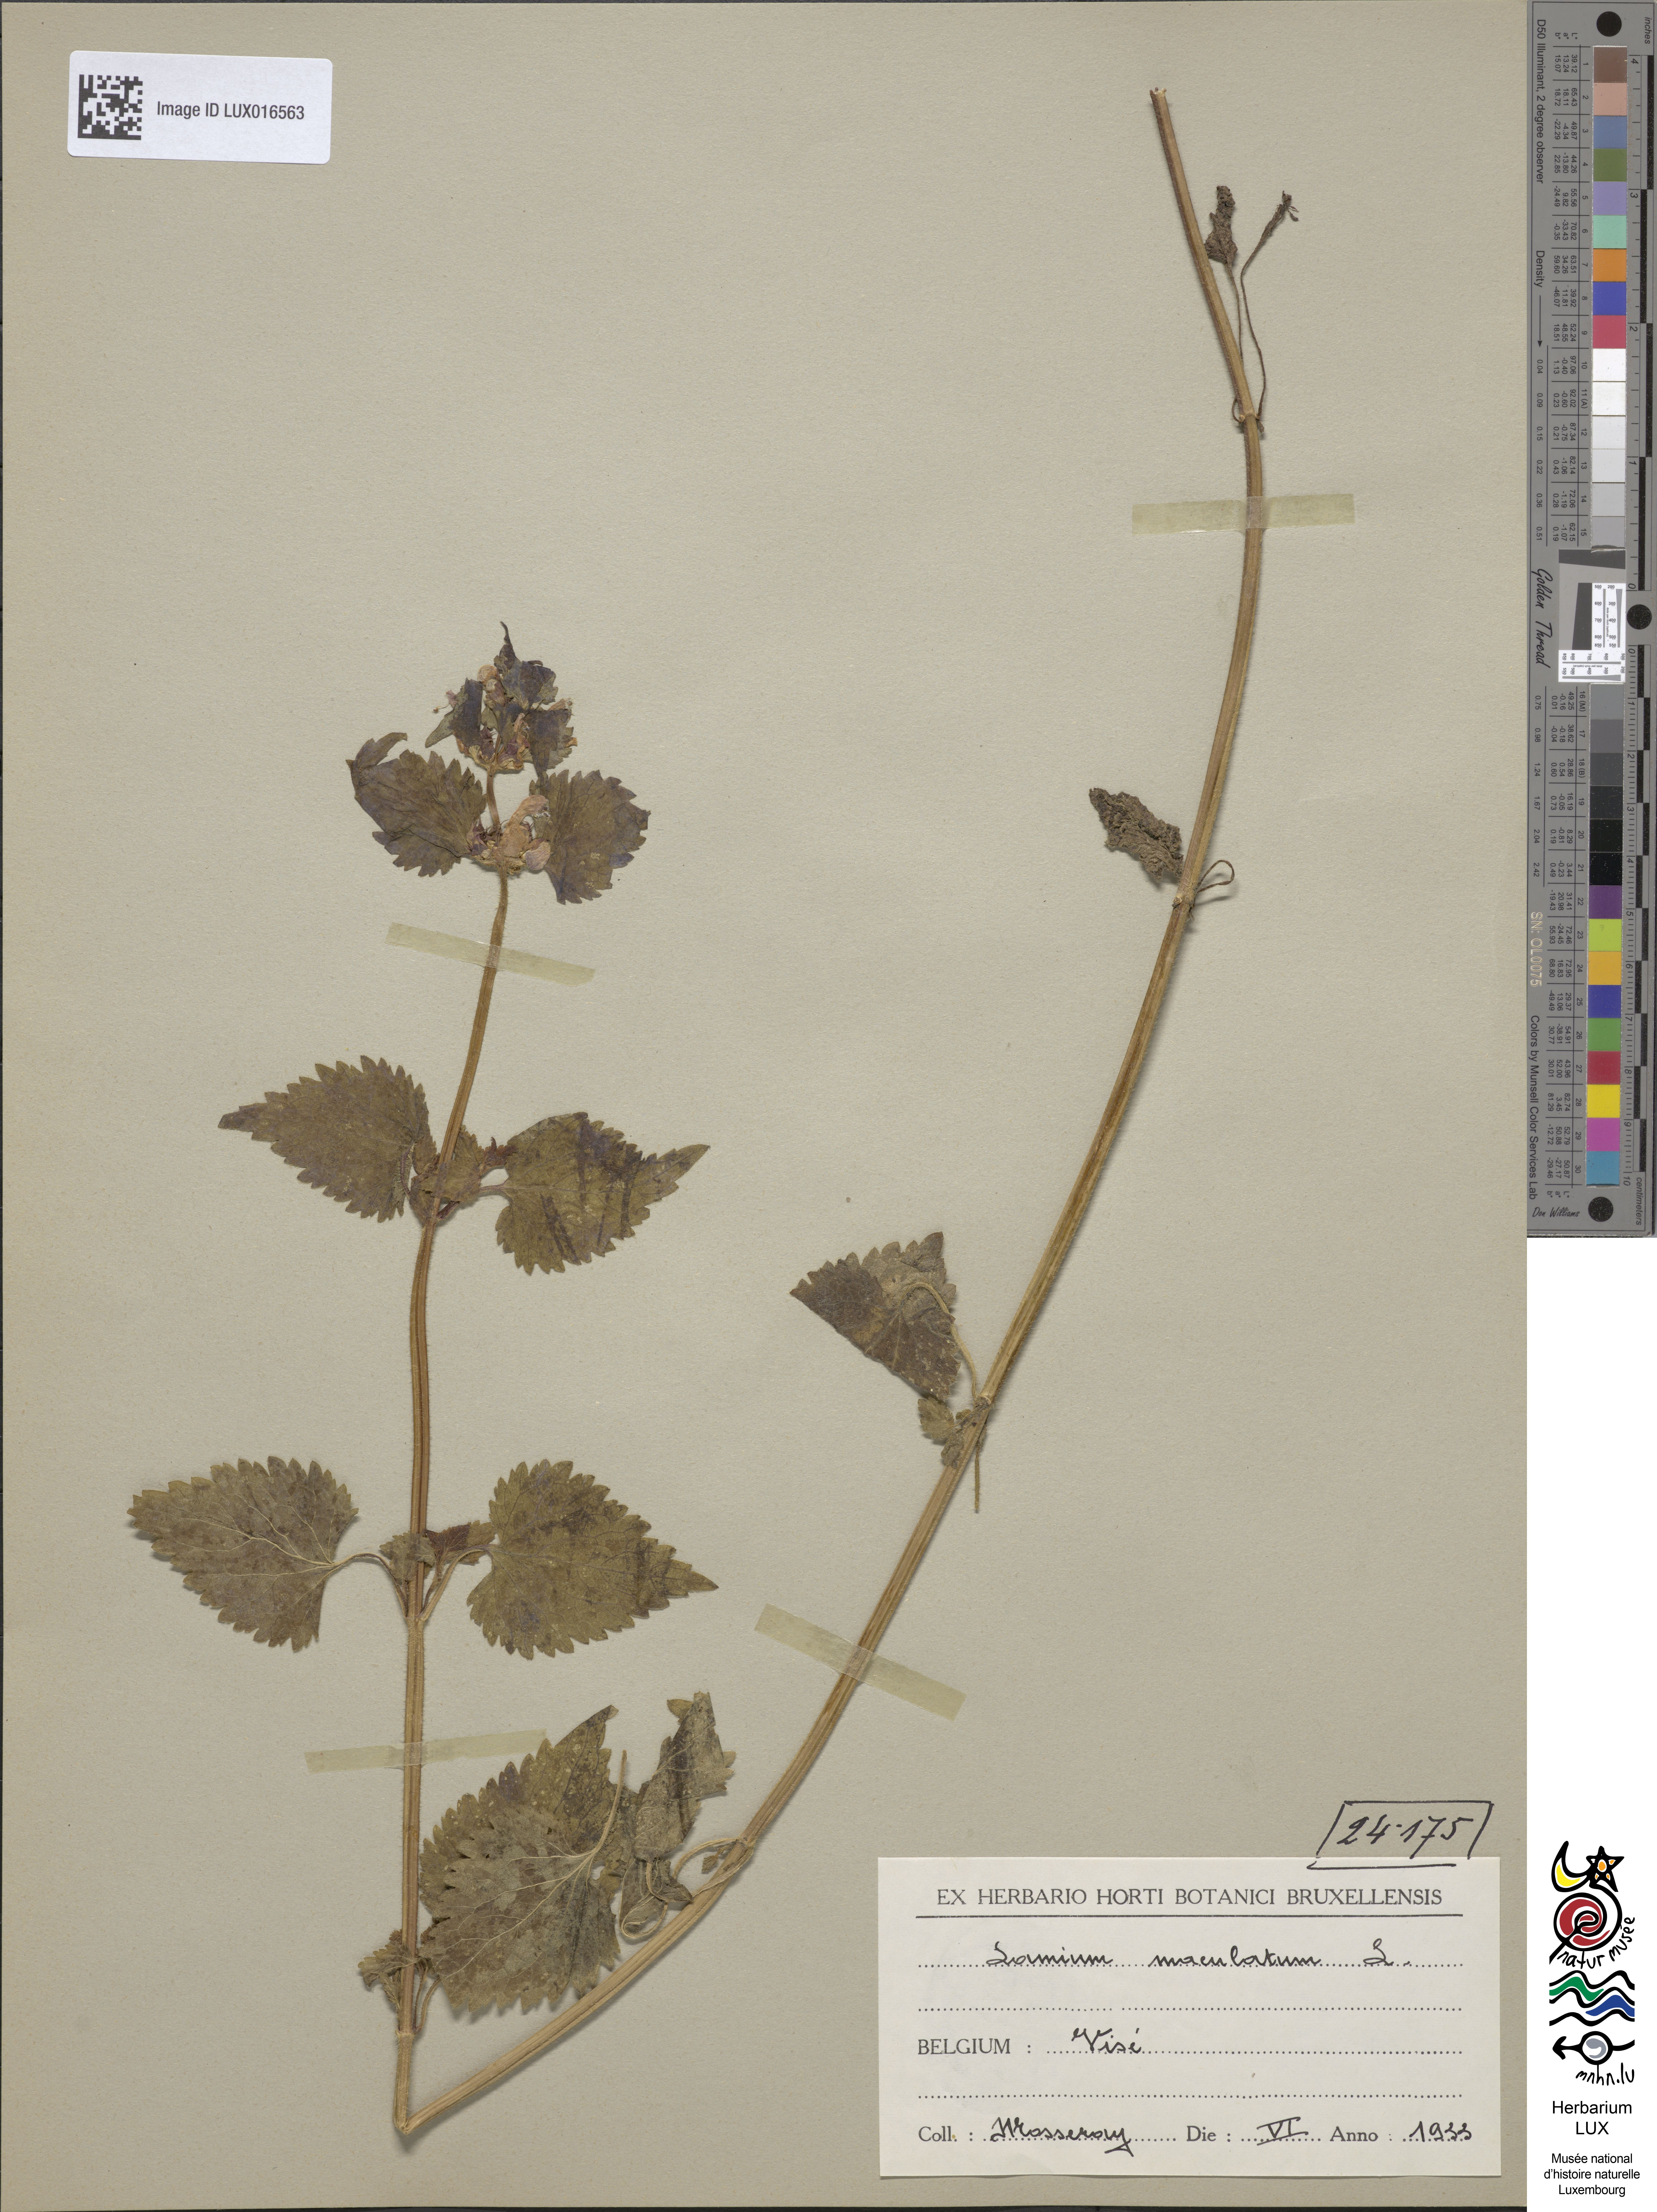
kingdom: Plantae
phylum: Tracheophyta
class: Magnoliopsida
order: Lamiales
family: Lamiaceae
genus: Lamium
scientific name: Lamium maculatum
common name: Spotted dead-nettle
